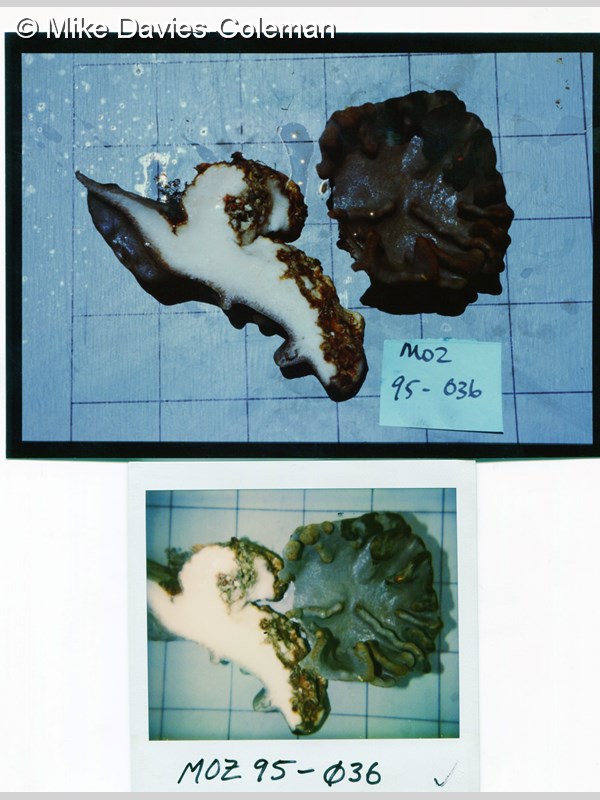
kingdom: Animalia
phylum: Cnidaria
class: Anthozoa
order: Malacalcyonacea
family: Sarcophytidae
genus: Lobophytum
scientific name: Lobophytum
